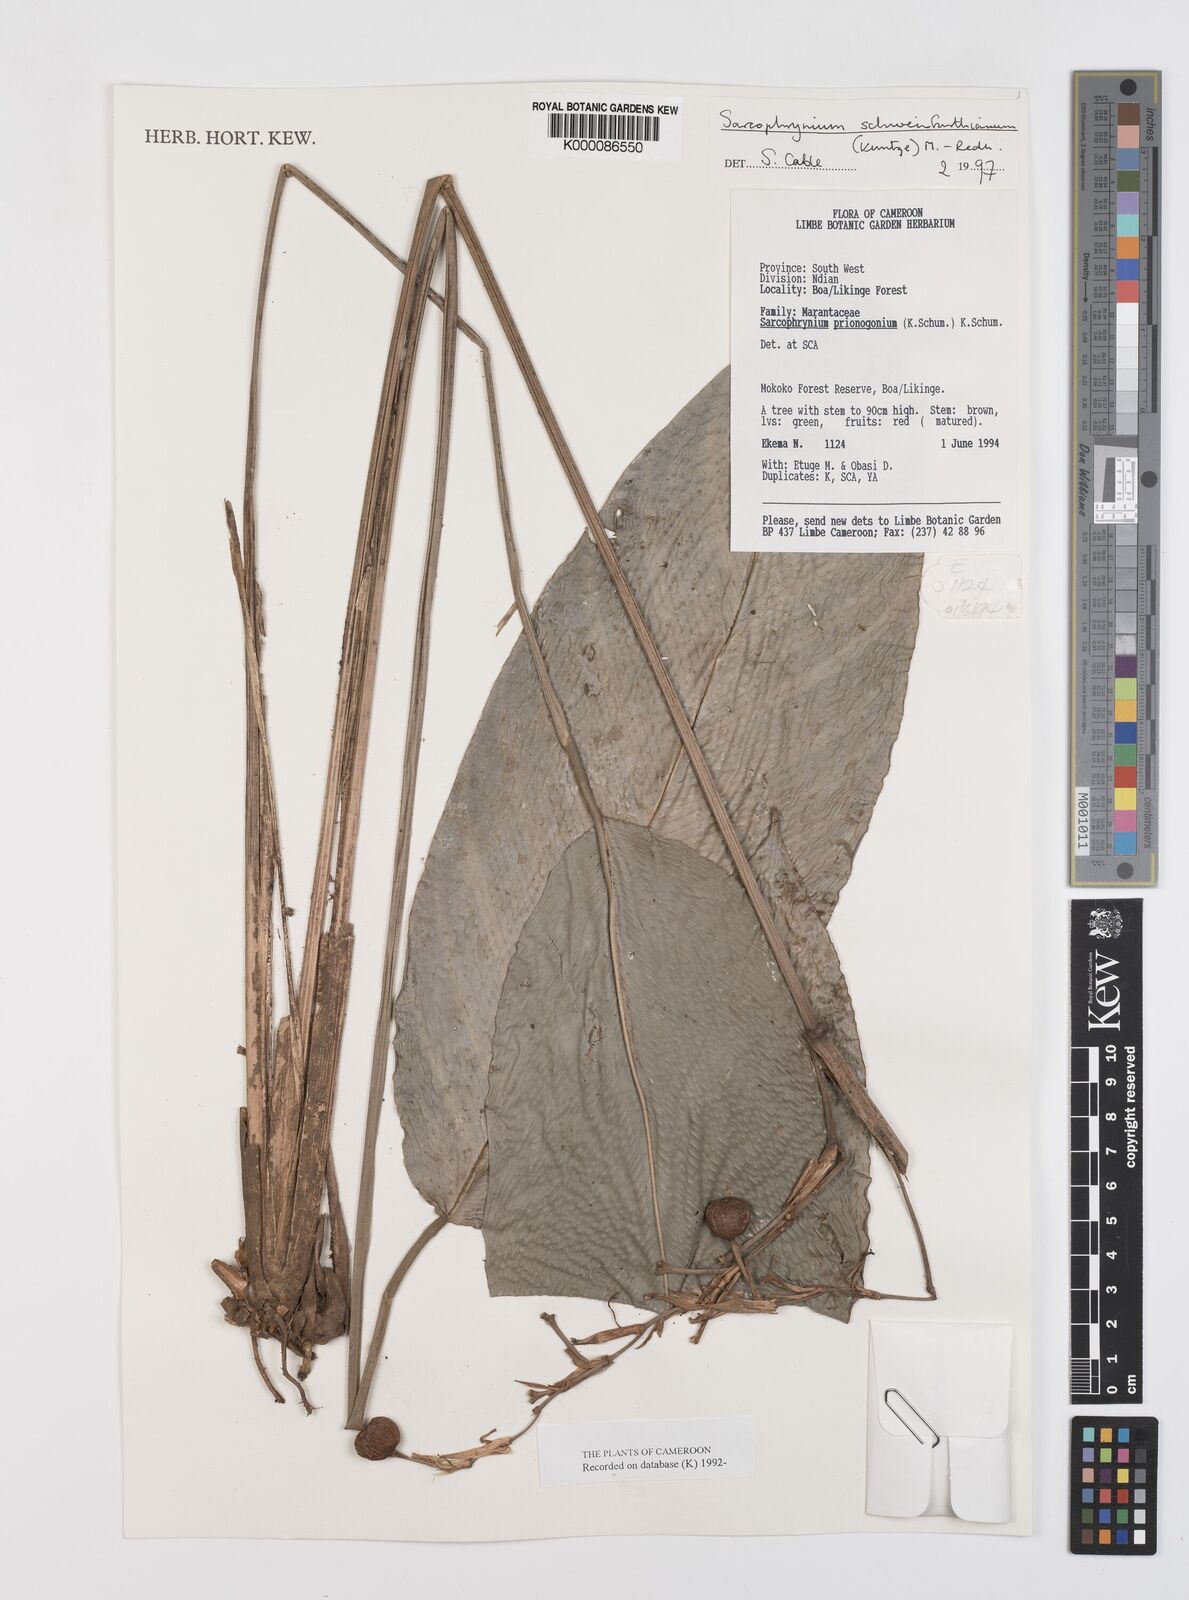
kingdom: Plantae
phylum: Tracheophyta
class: Liliopsida
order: Zingiberales
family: Marantaceae
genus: Sarcophrynium
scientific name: Sarcophrynium schweinfurthianum
